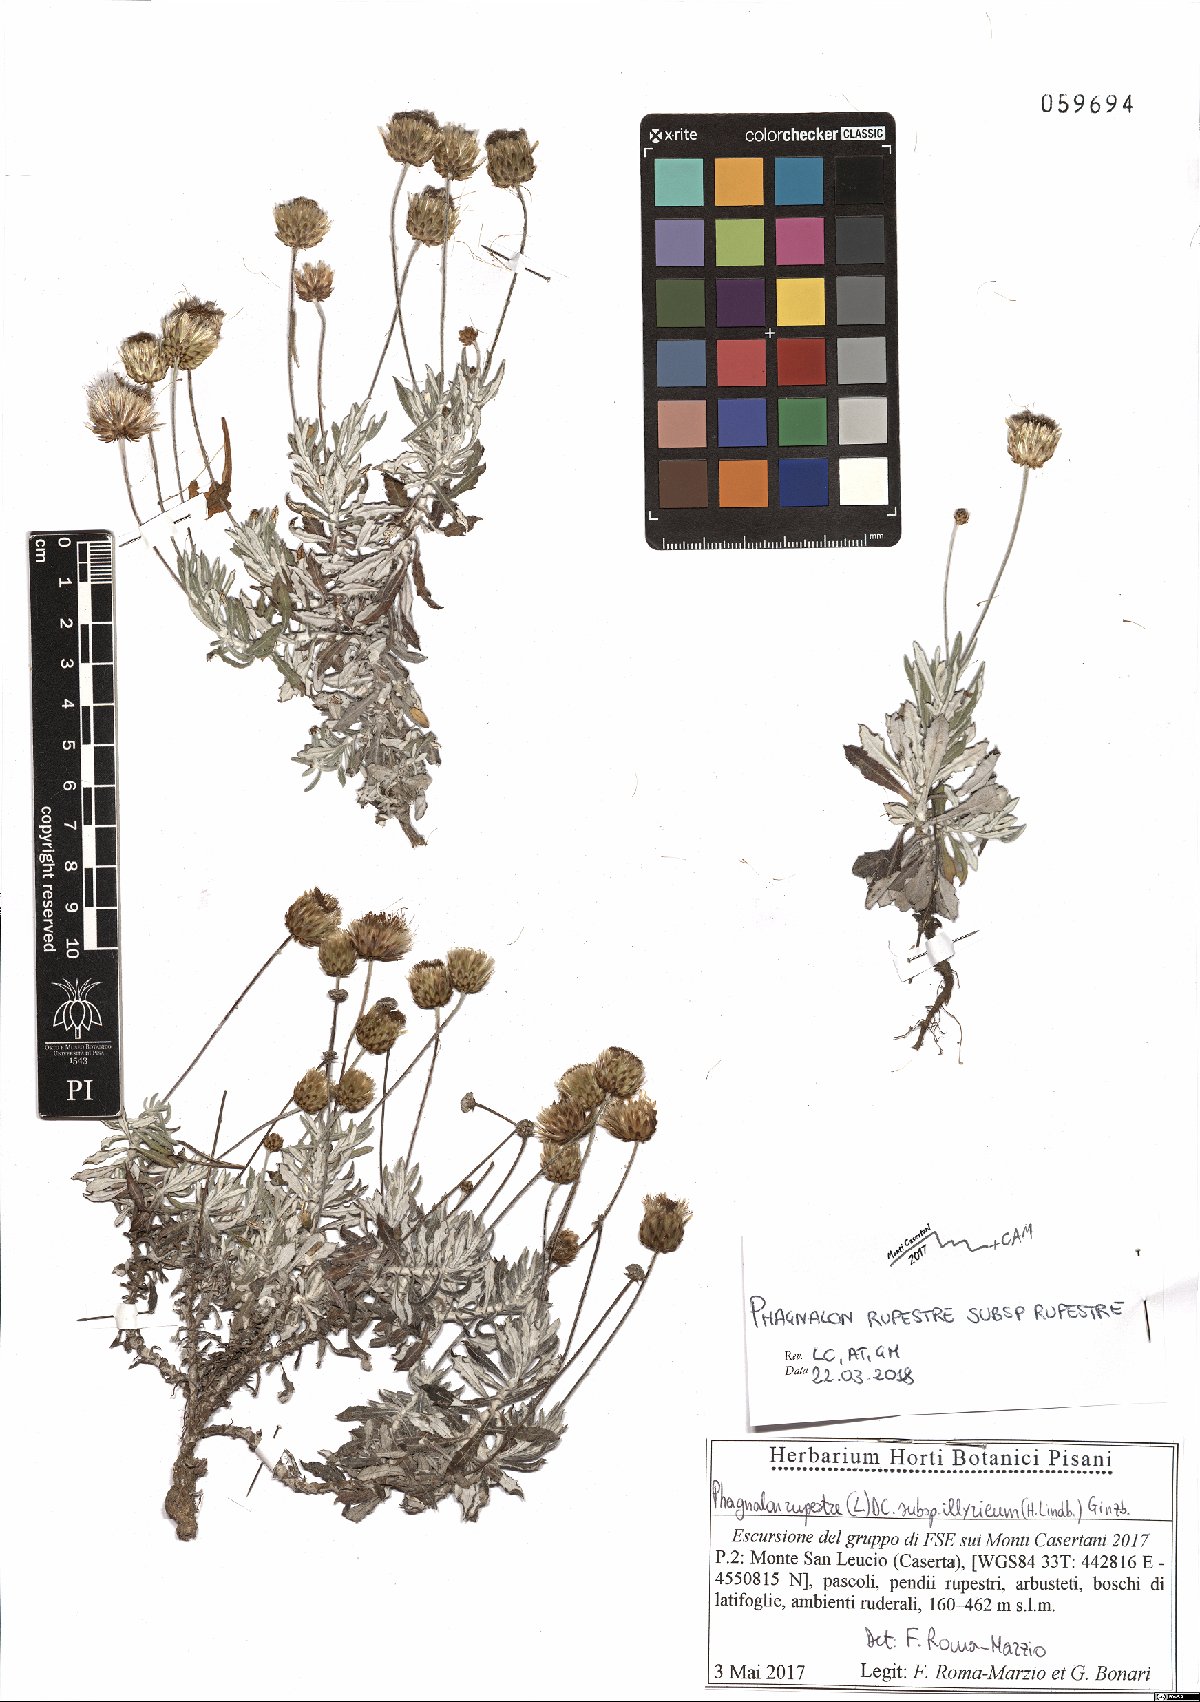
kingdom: Plantae
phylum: Tracheophyta
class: Magnoliopsida
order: Asterales
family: Asteraceae
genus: Phagnalon
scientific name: Phagnalon rupestre
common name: Rock phagnalon
